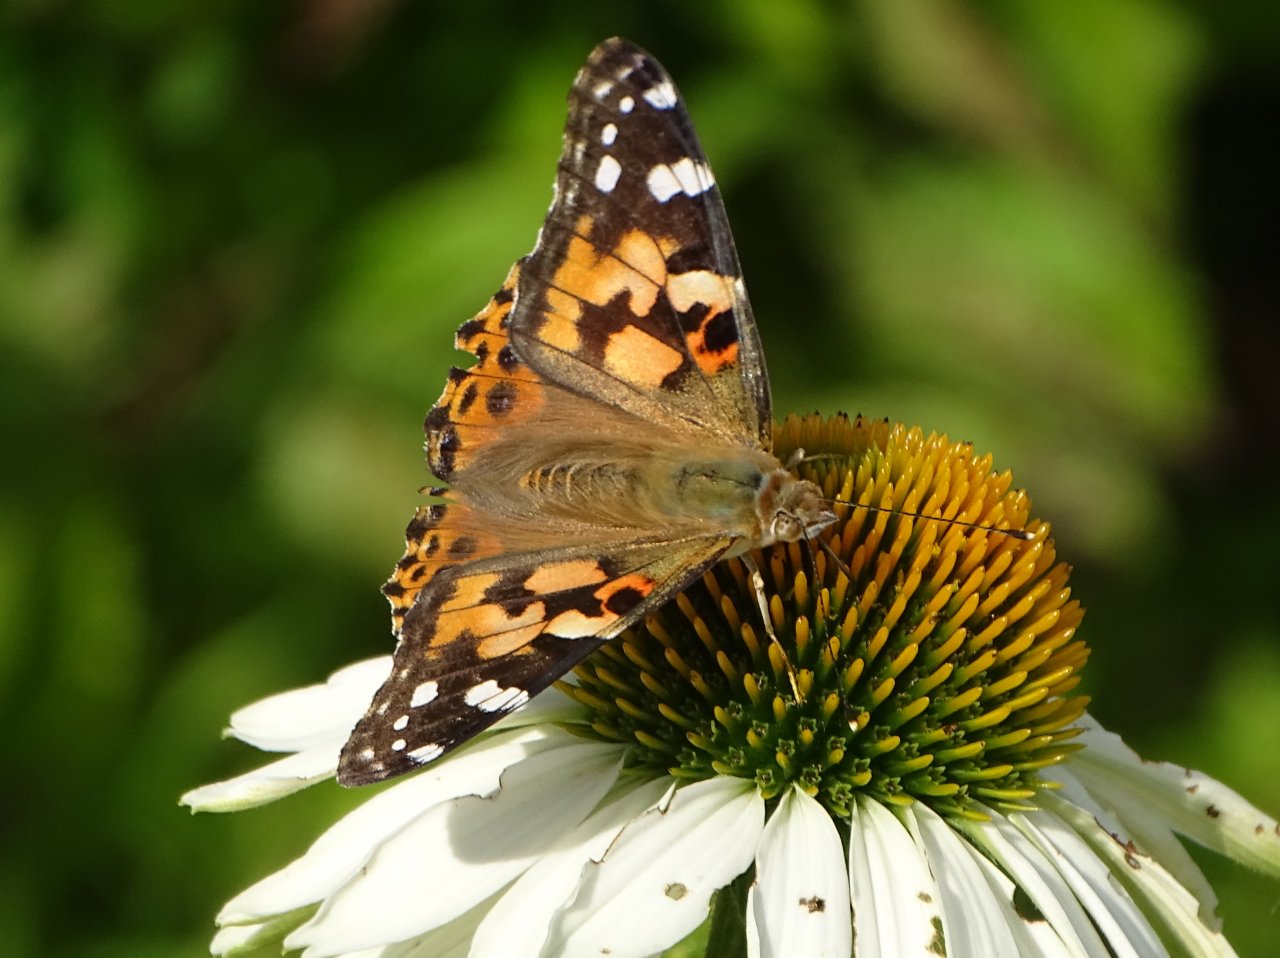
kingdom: Animalia
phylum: Arthropoda
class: Insecta
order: Lepidoptera
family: Nymphalidae
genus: Vanessa
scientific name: Vanessa cardui
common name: Painted Lady
